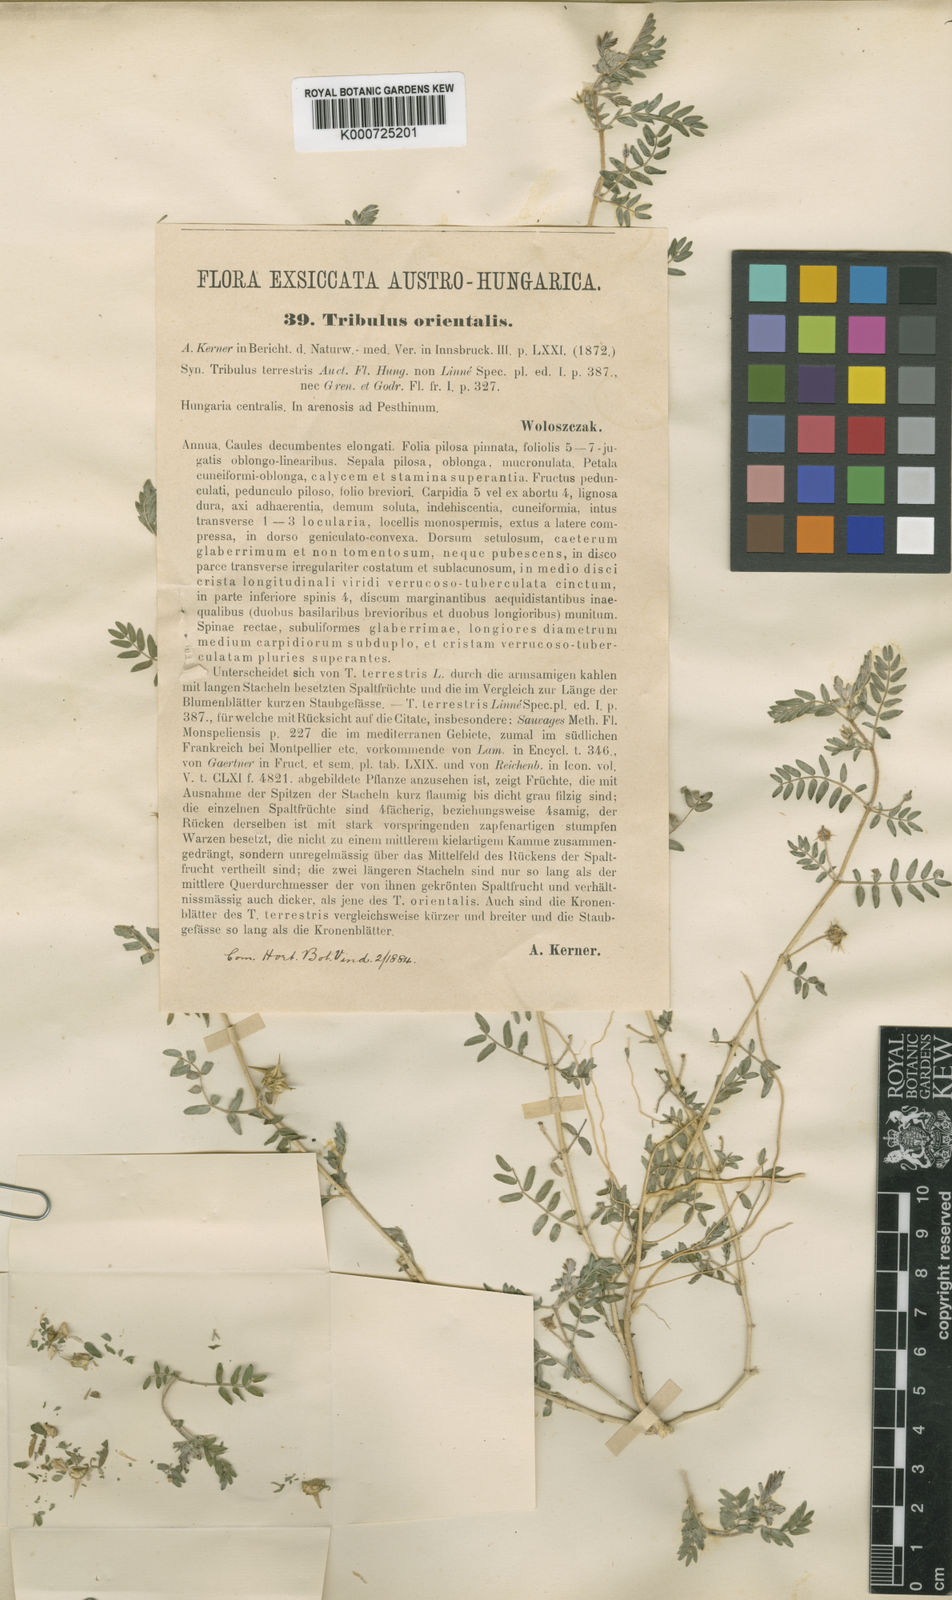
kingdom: Plantae
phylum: Tracheophyta
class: Magnoliopsida
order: Zygophyllales
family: Zygophyllaceae
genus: Tribulus
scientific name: Tribulus terrestris
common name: Puncturevine
